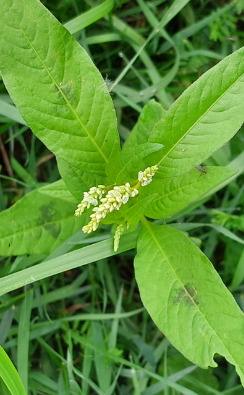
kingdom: Plantae
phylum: Tracheophyta
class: Magnoliopsida
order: Caryophyllales
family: Polygonaceae
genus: Persicaria
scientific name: Persicaria lapathifolia
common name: Bleg pileurt
